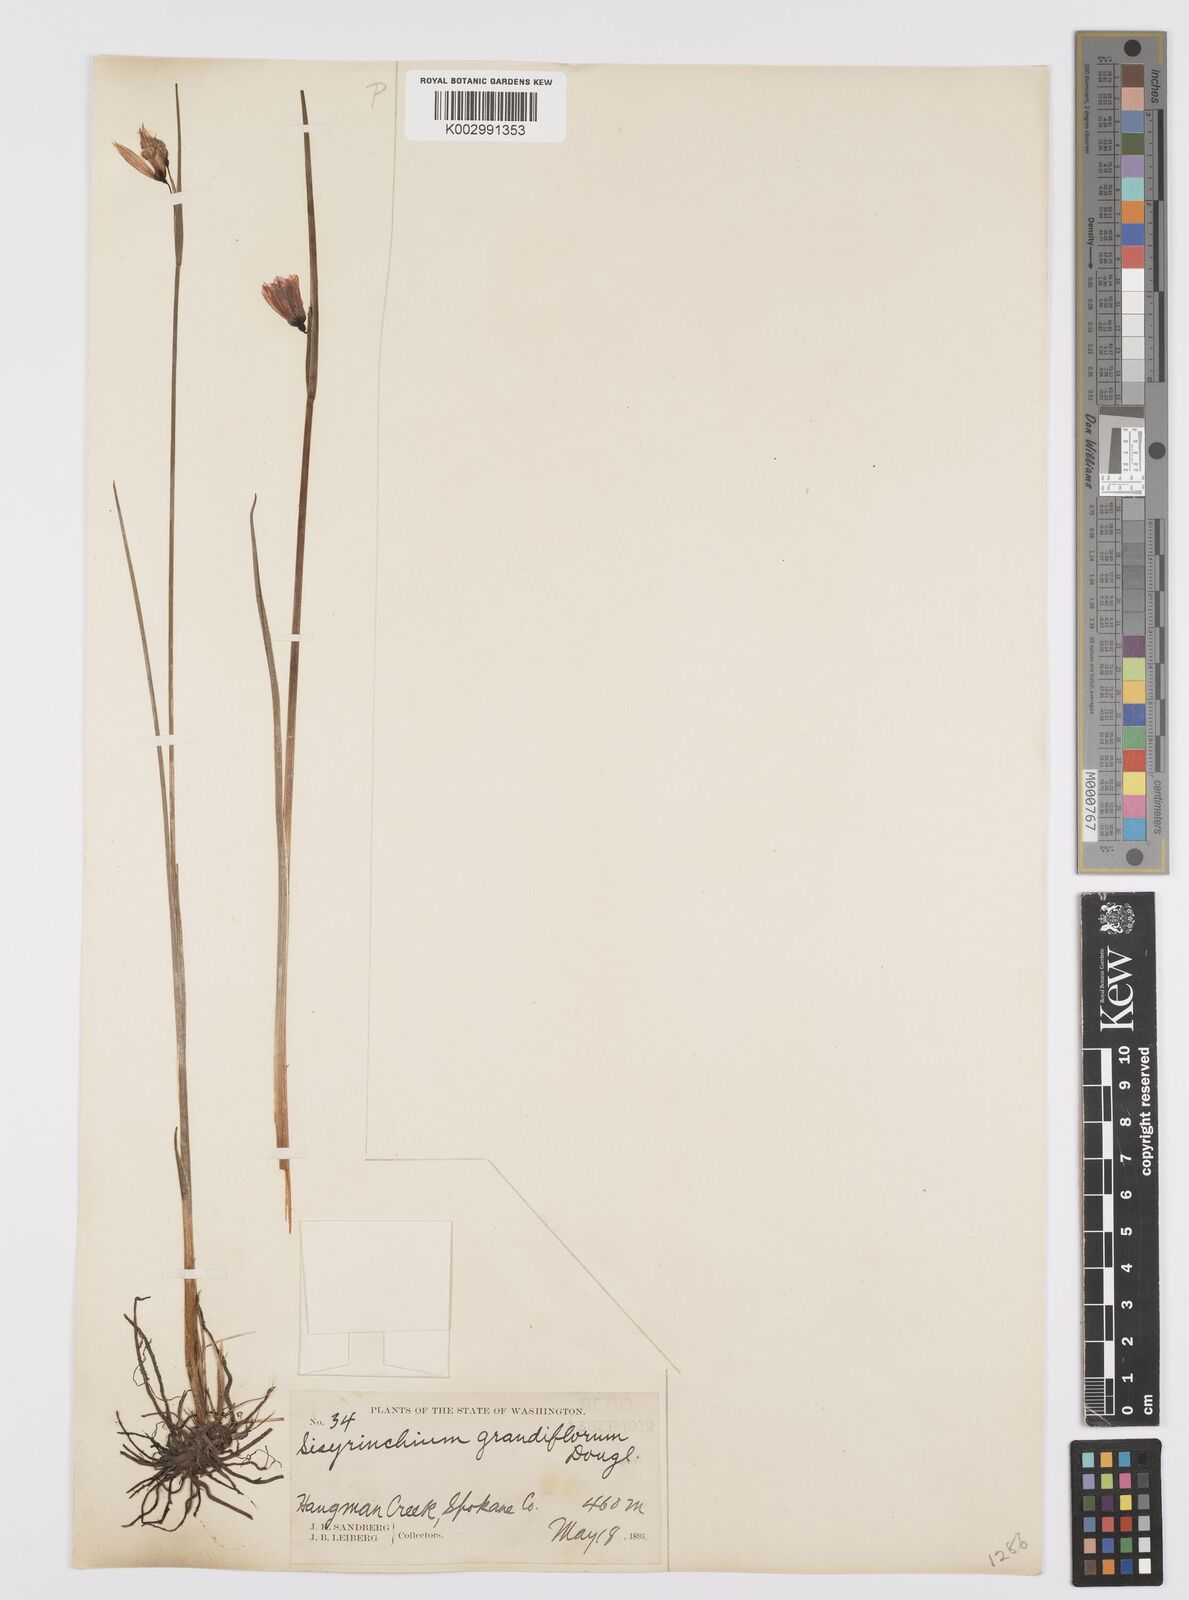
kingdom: Plantae
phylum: Tracheophyta
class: Liliopsida
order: Asparagales
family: Iridaceae
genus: Olsynium
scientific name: Olsynium douglasii
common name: Douglas' grasswidow
